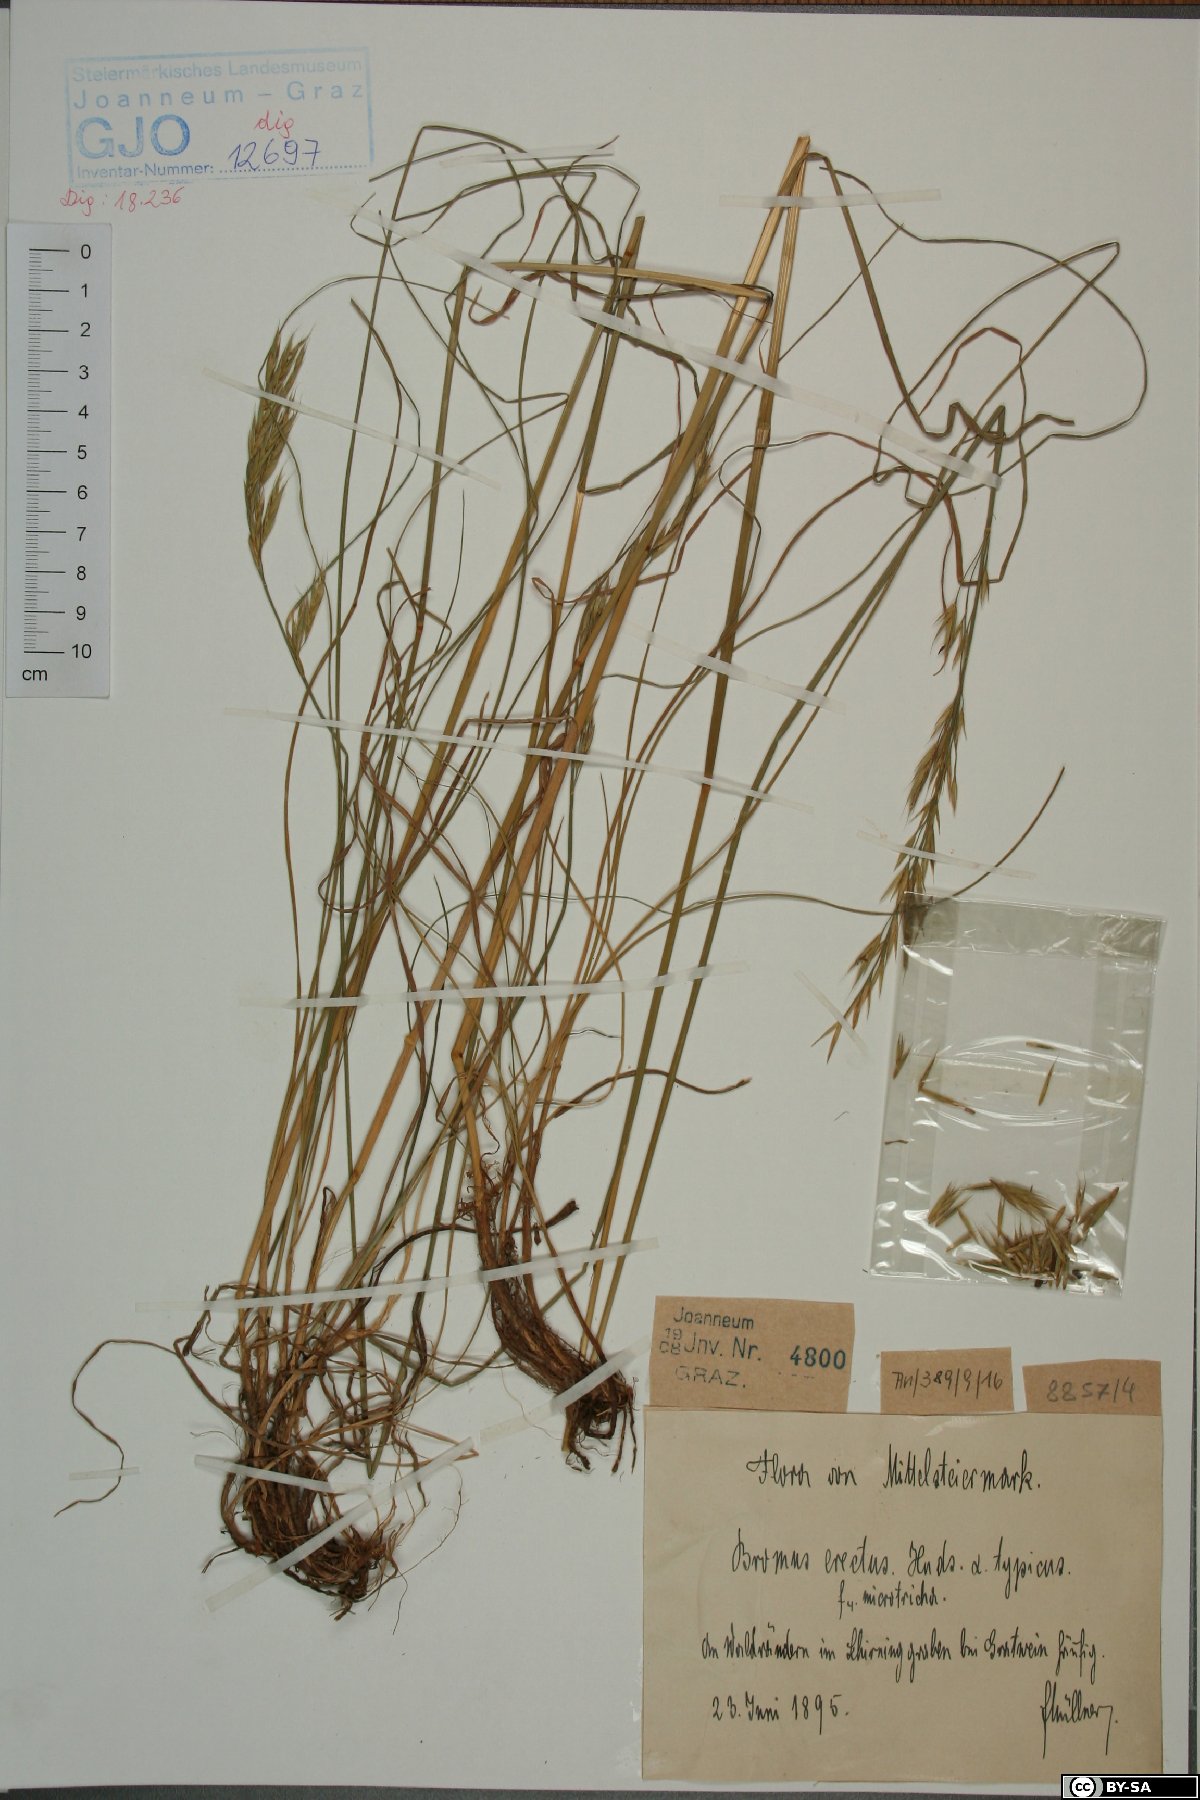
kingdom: Plantae
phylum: Tracheophyta
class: Liliopsida
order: Poales
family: Poaceae
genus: Bromus
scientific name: Bromus erectus
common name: Erect brome
